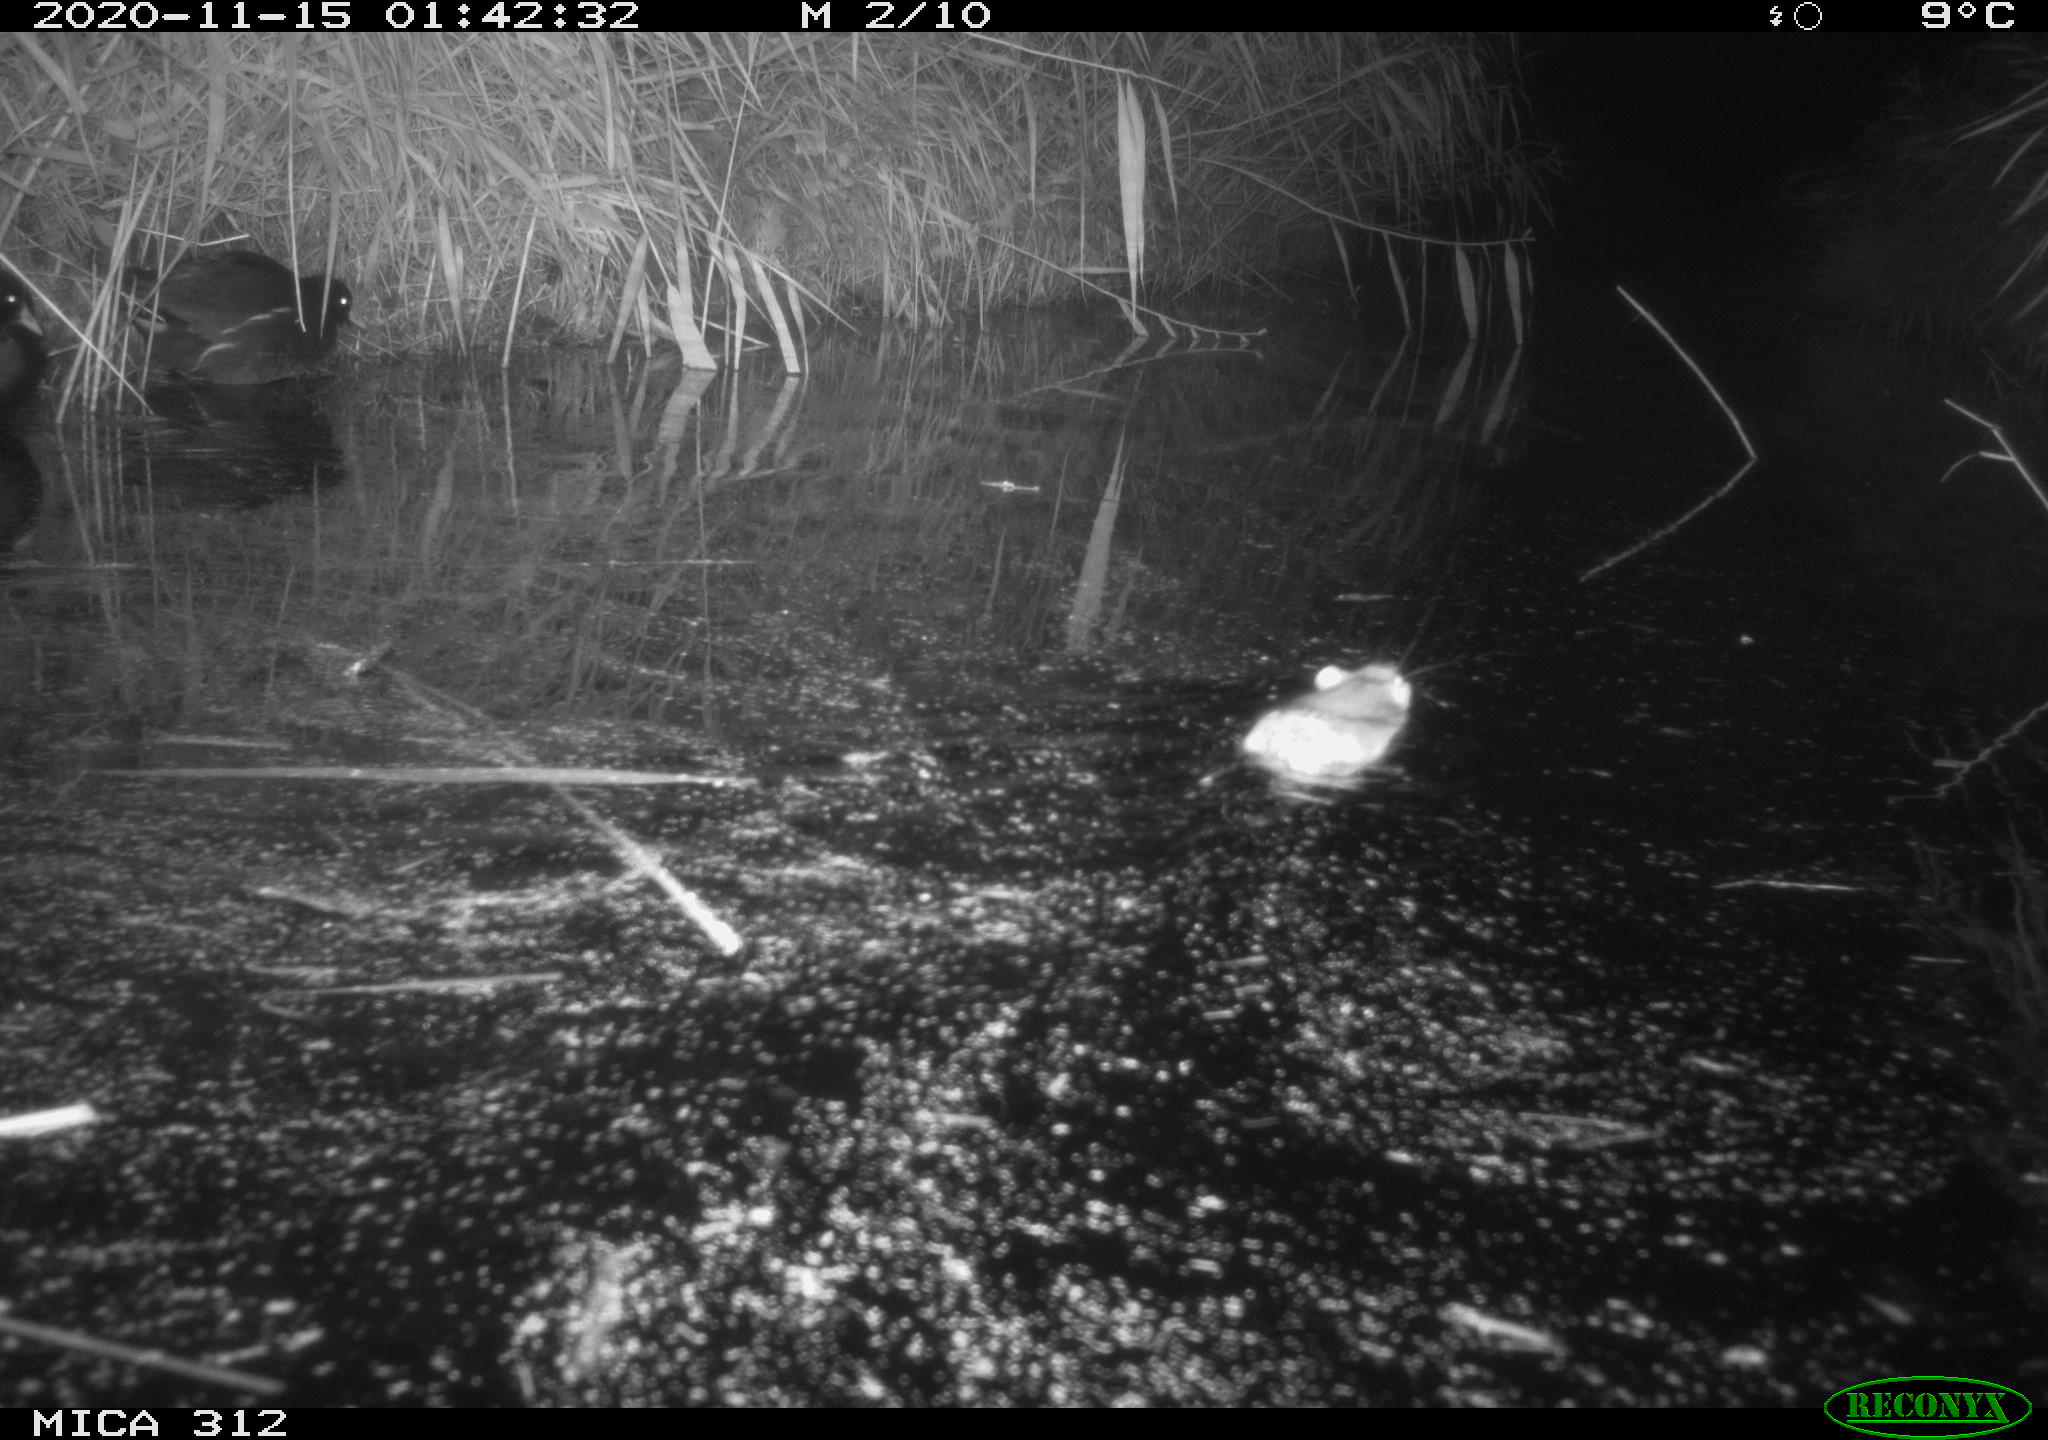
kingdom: Animalia
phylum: Chordata
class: Aves
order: Gruiformes
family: Rallidae
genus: Gallinula
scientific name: Gallinula chloropus
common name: Common moorhen
